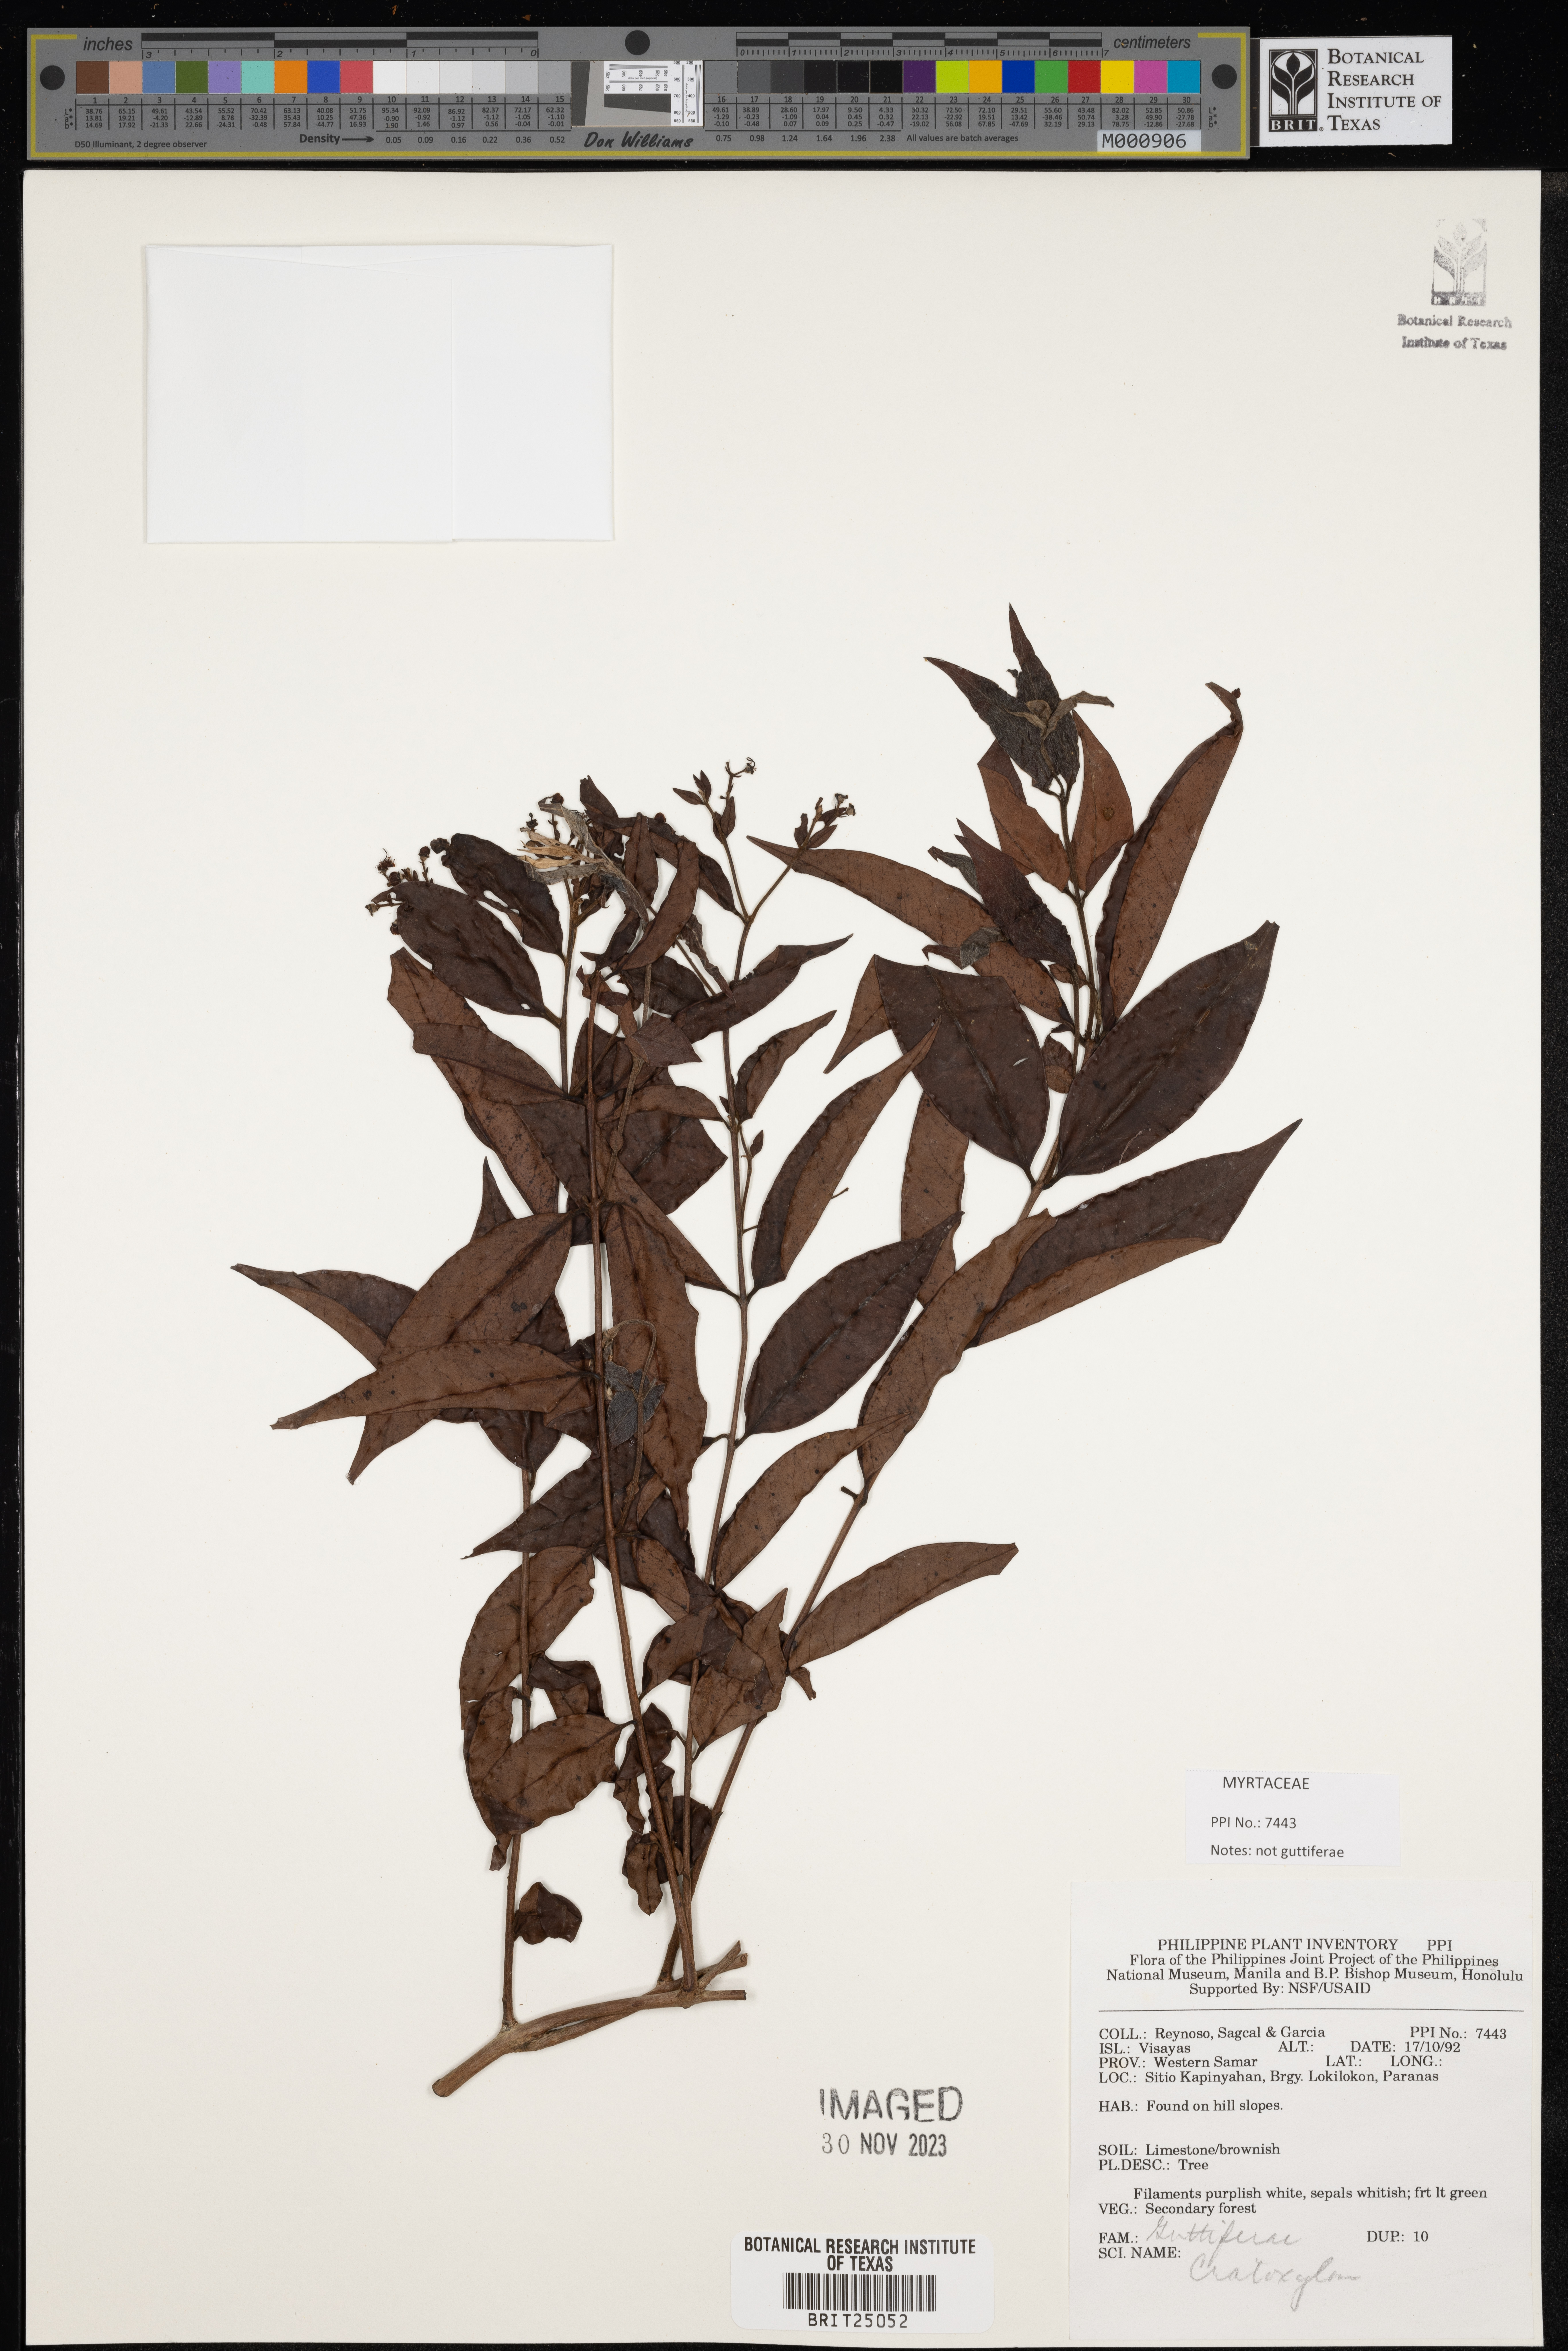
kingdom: Plantae
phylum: Tracheophyta
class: Magnoliopsida
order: Malpighiales
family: Hypericaceae
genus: Cratoxylum
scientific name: Cratoxylum
